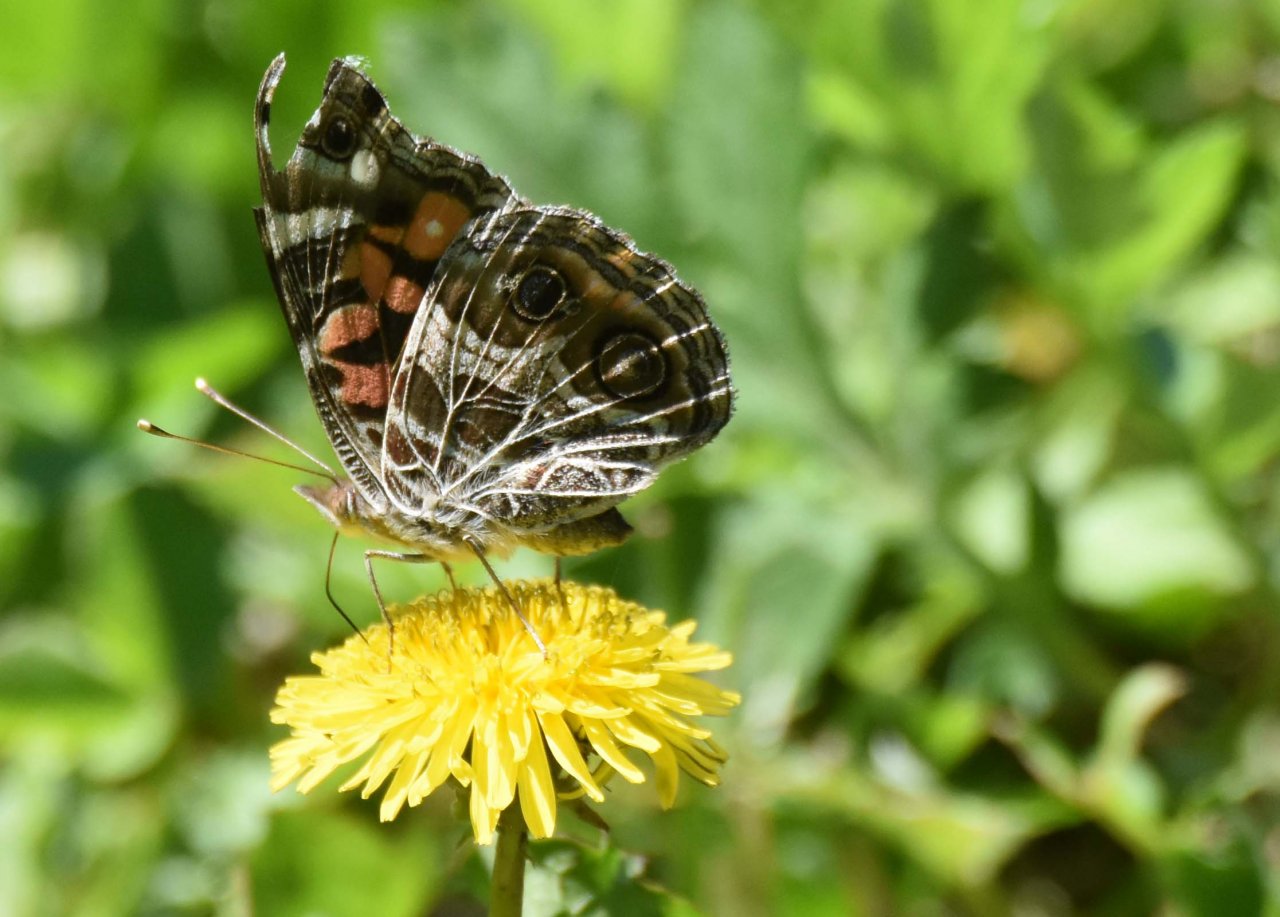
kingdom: Animalia
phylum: Arthropoda
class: Insecta
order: Lepidoptera
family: Nymphalidae
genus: Vanessa
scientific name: Vanessa
